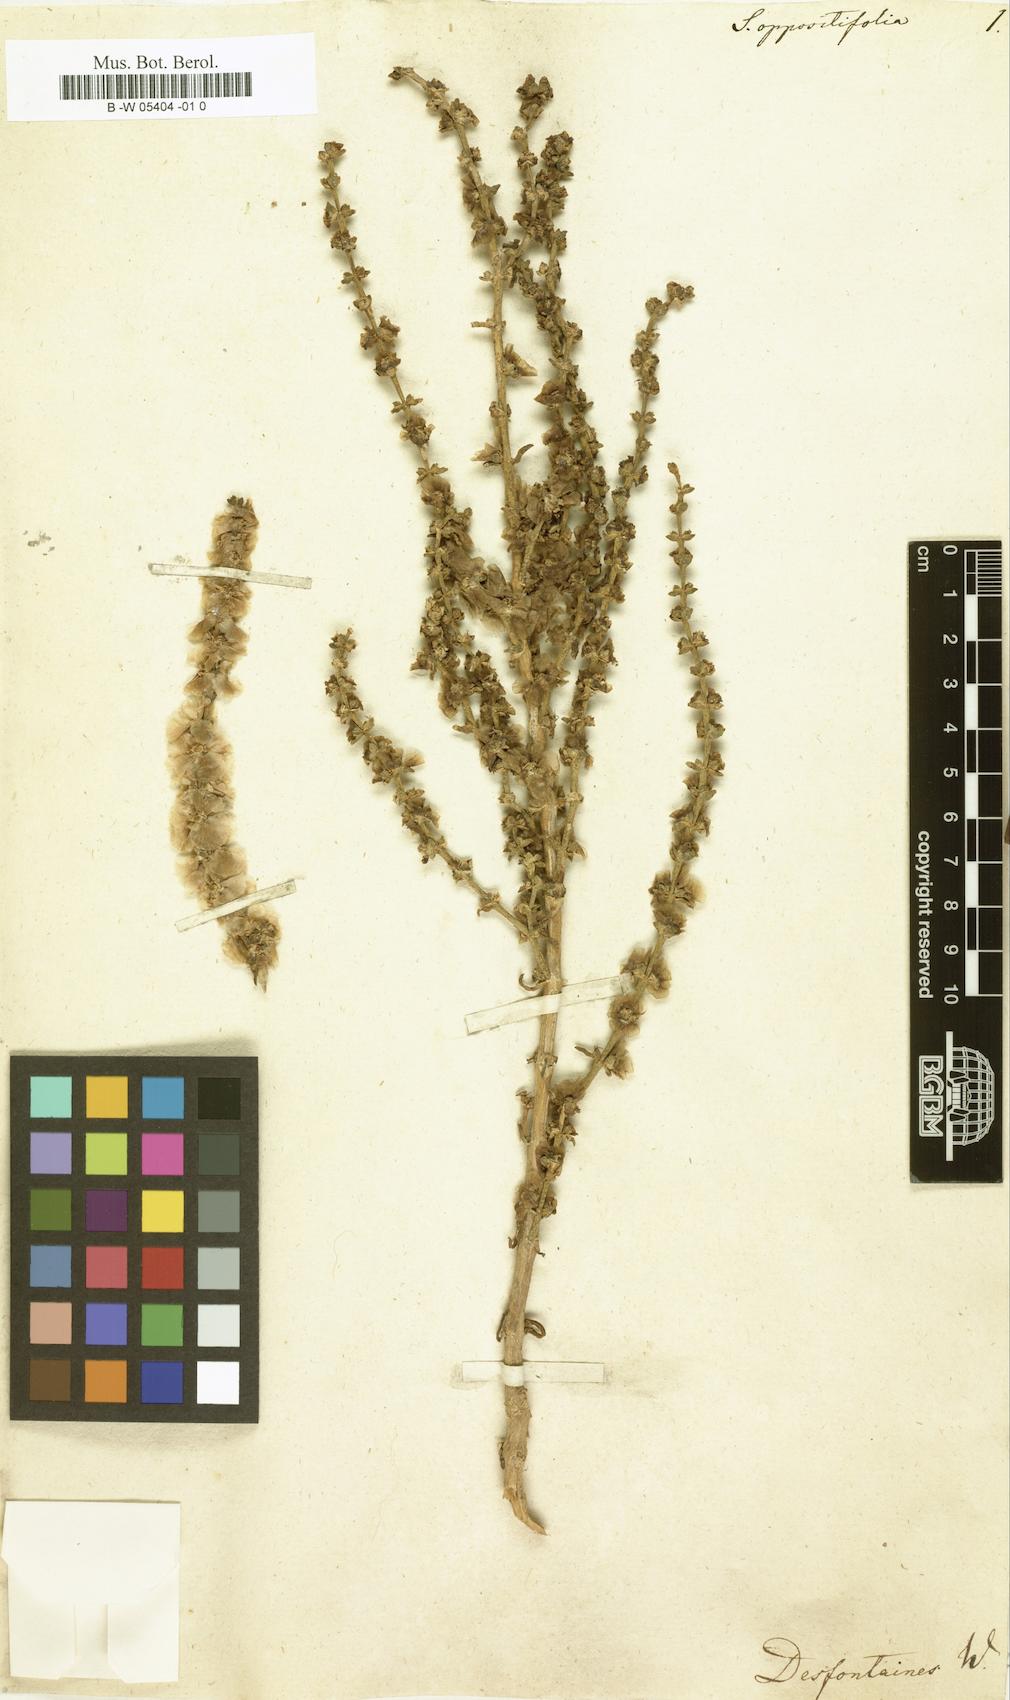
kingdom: Plantae
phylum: Tracheophyta
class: Magnoliopsida
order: Caryophyllales
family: Amaranthaceae
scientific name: Amaranthaceae
